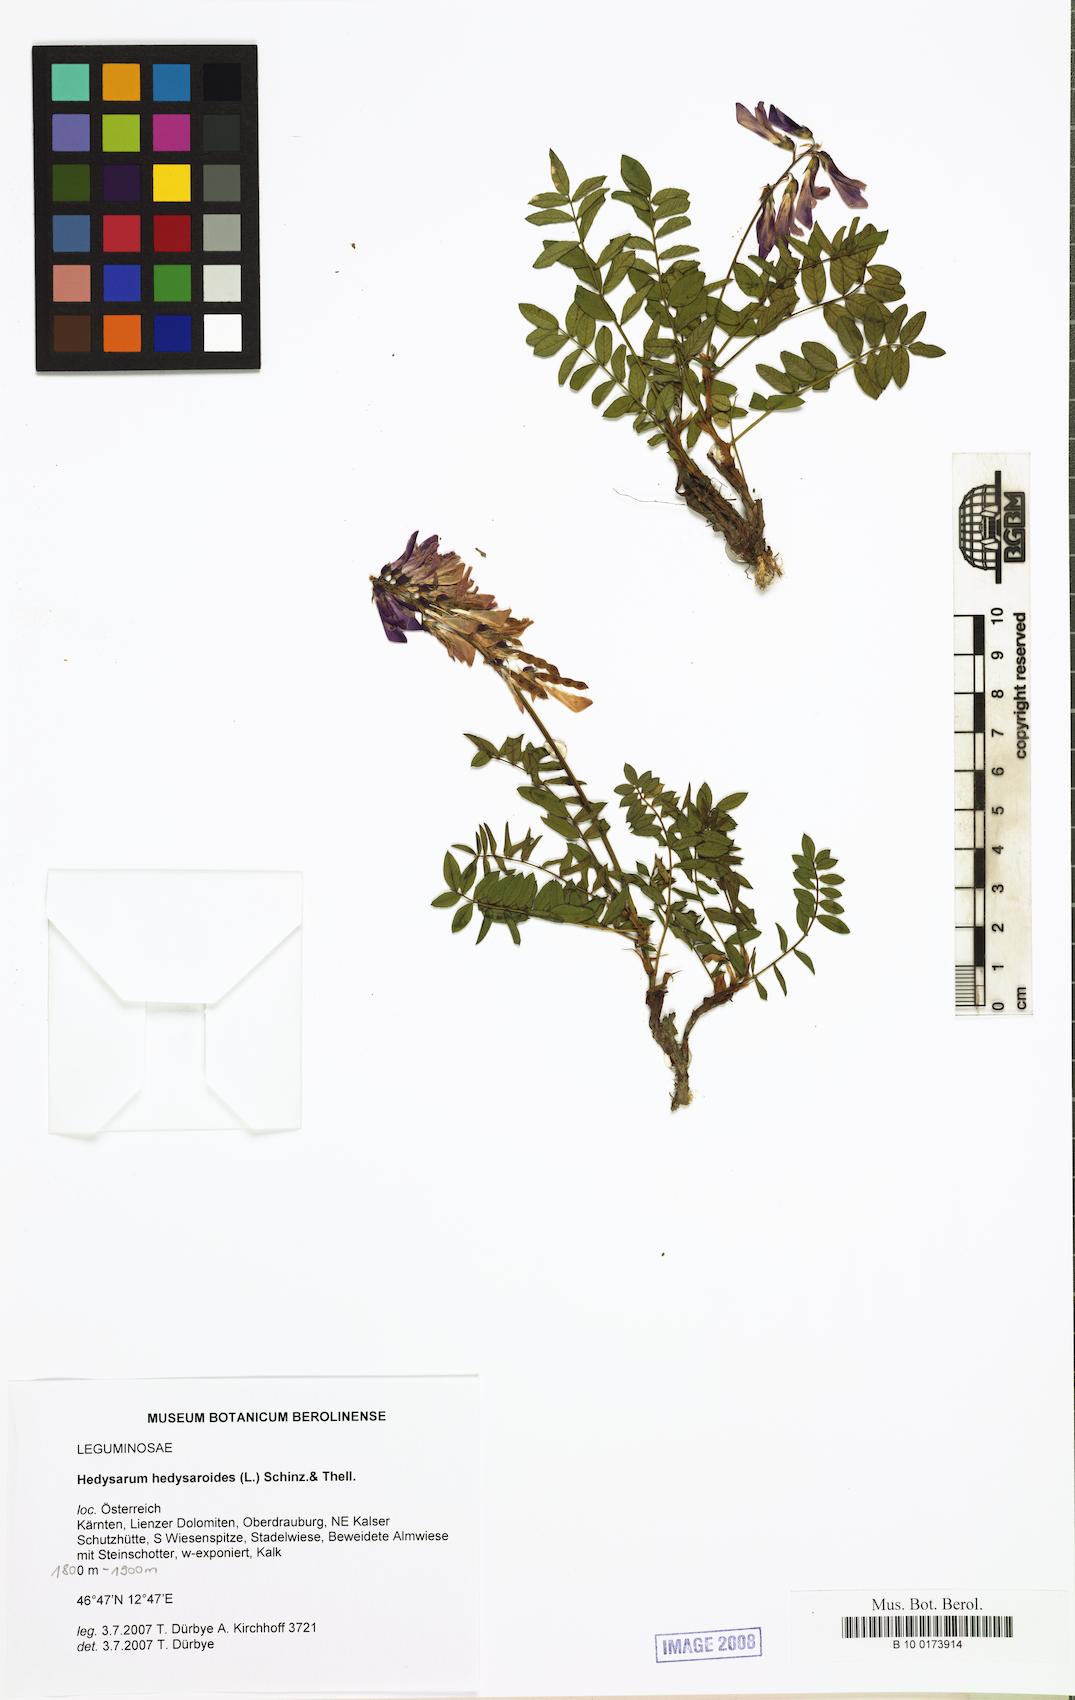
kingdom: Plantae
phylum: Tracheophyta
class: Magnoliopsida
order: Fabales
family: Fabaceae
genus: Hedysarum
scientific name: Hedysarum hedysaroides
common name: Alpine french-honeysuckle
